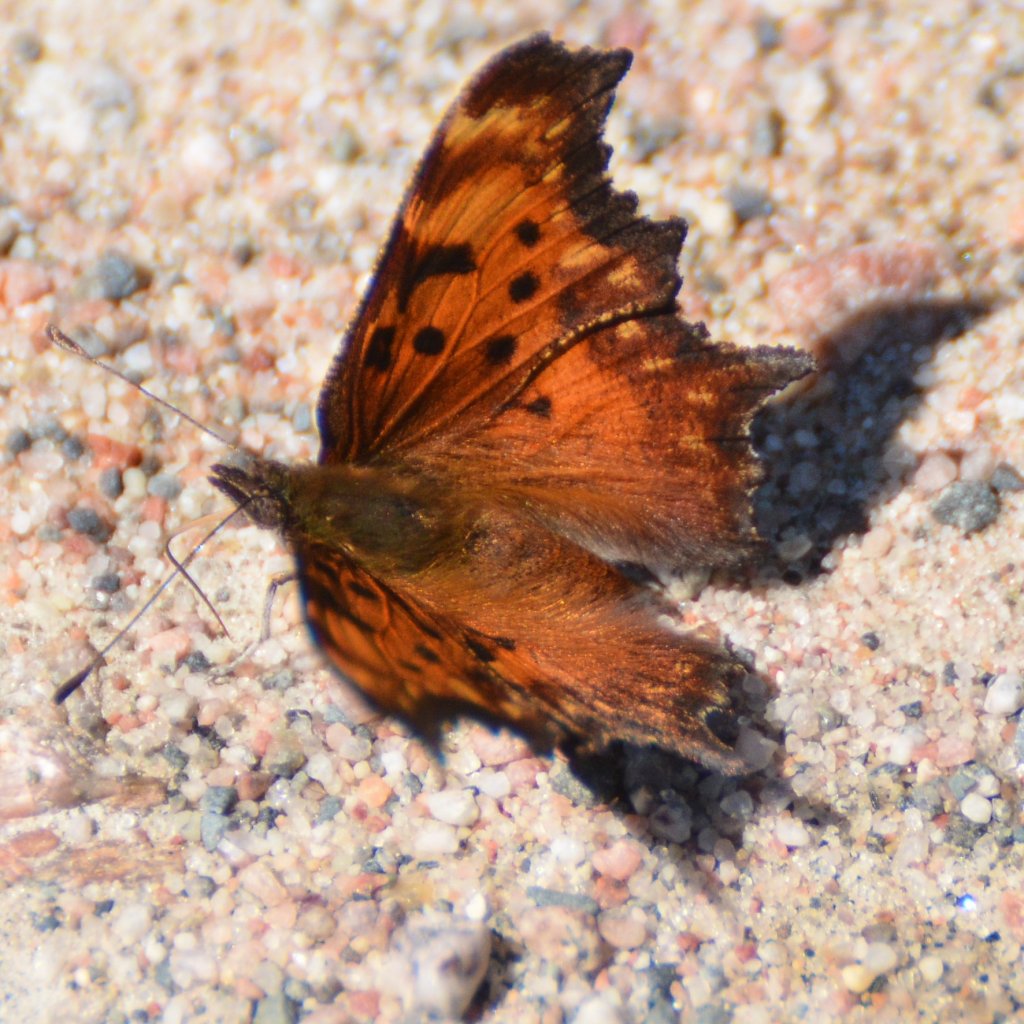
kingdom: Animalia
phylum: Arthropoda
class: Insecta
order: Lepidoptera
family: Nymphalidae
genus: Polygonia
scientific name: Polygonia gracilis
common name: Hoary Comma
